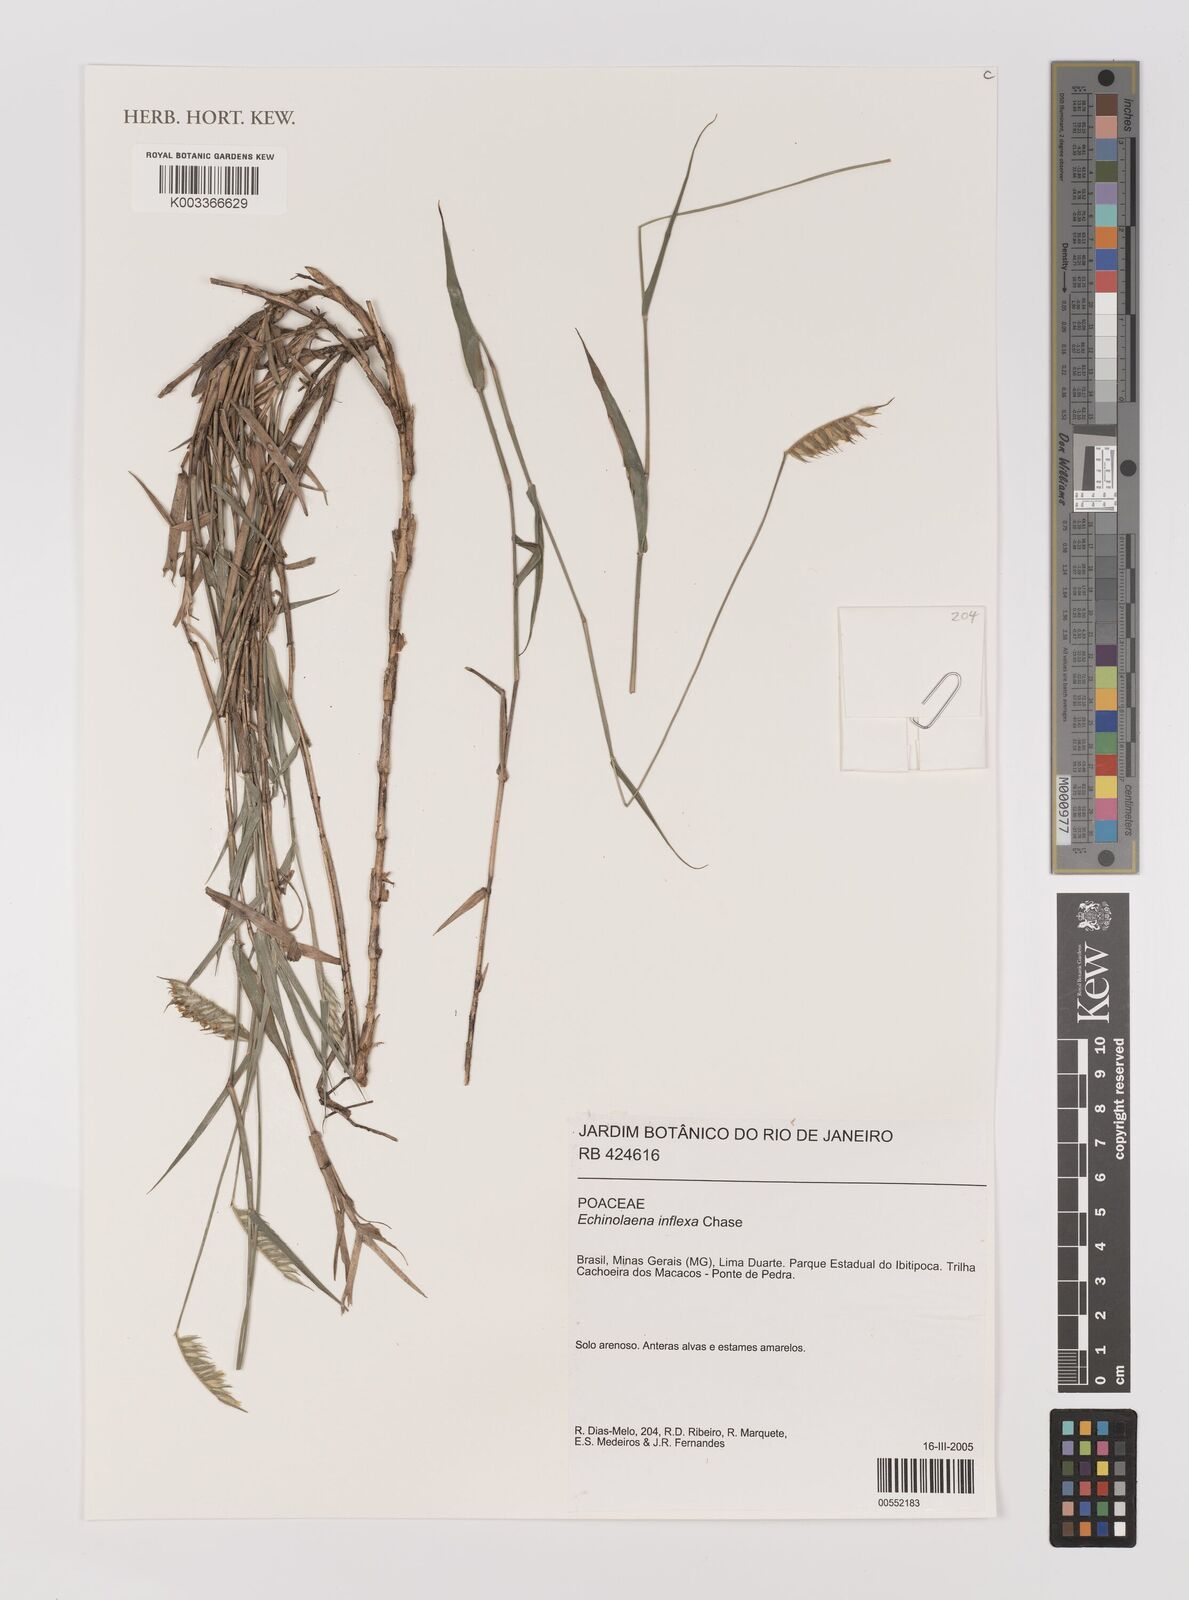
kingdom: Plantae
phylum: Tracheophyta
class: Liliopsida
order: Poales
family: Poaceae
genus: Echinolaena
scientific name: Echinolaena inflexa
